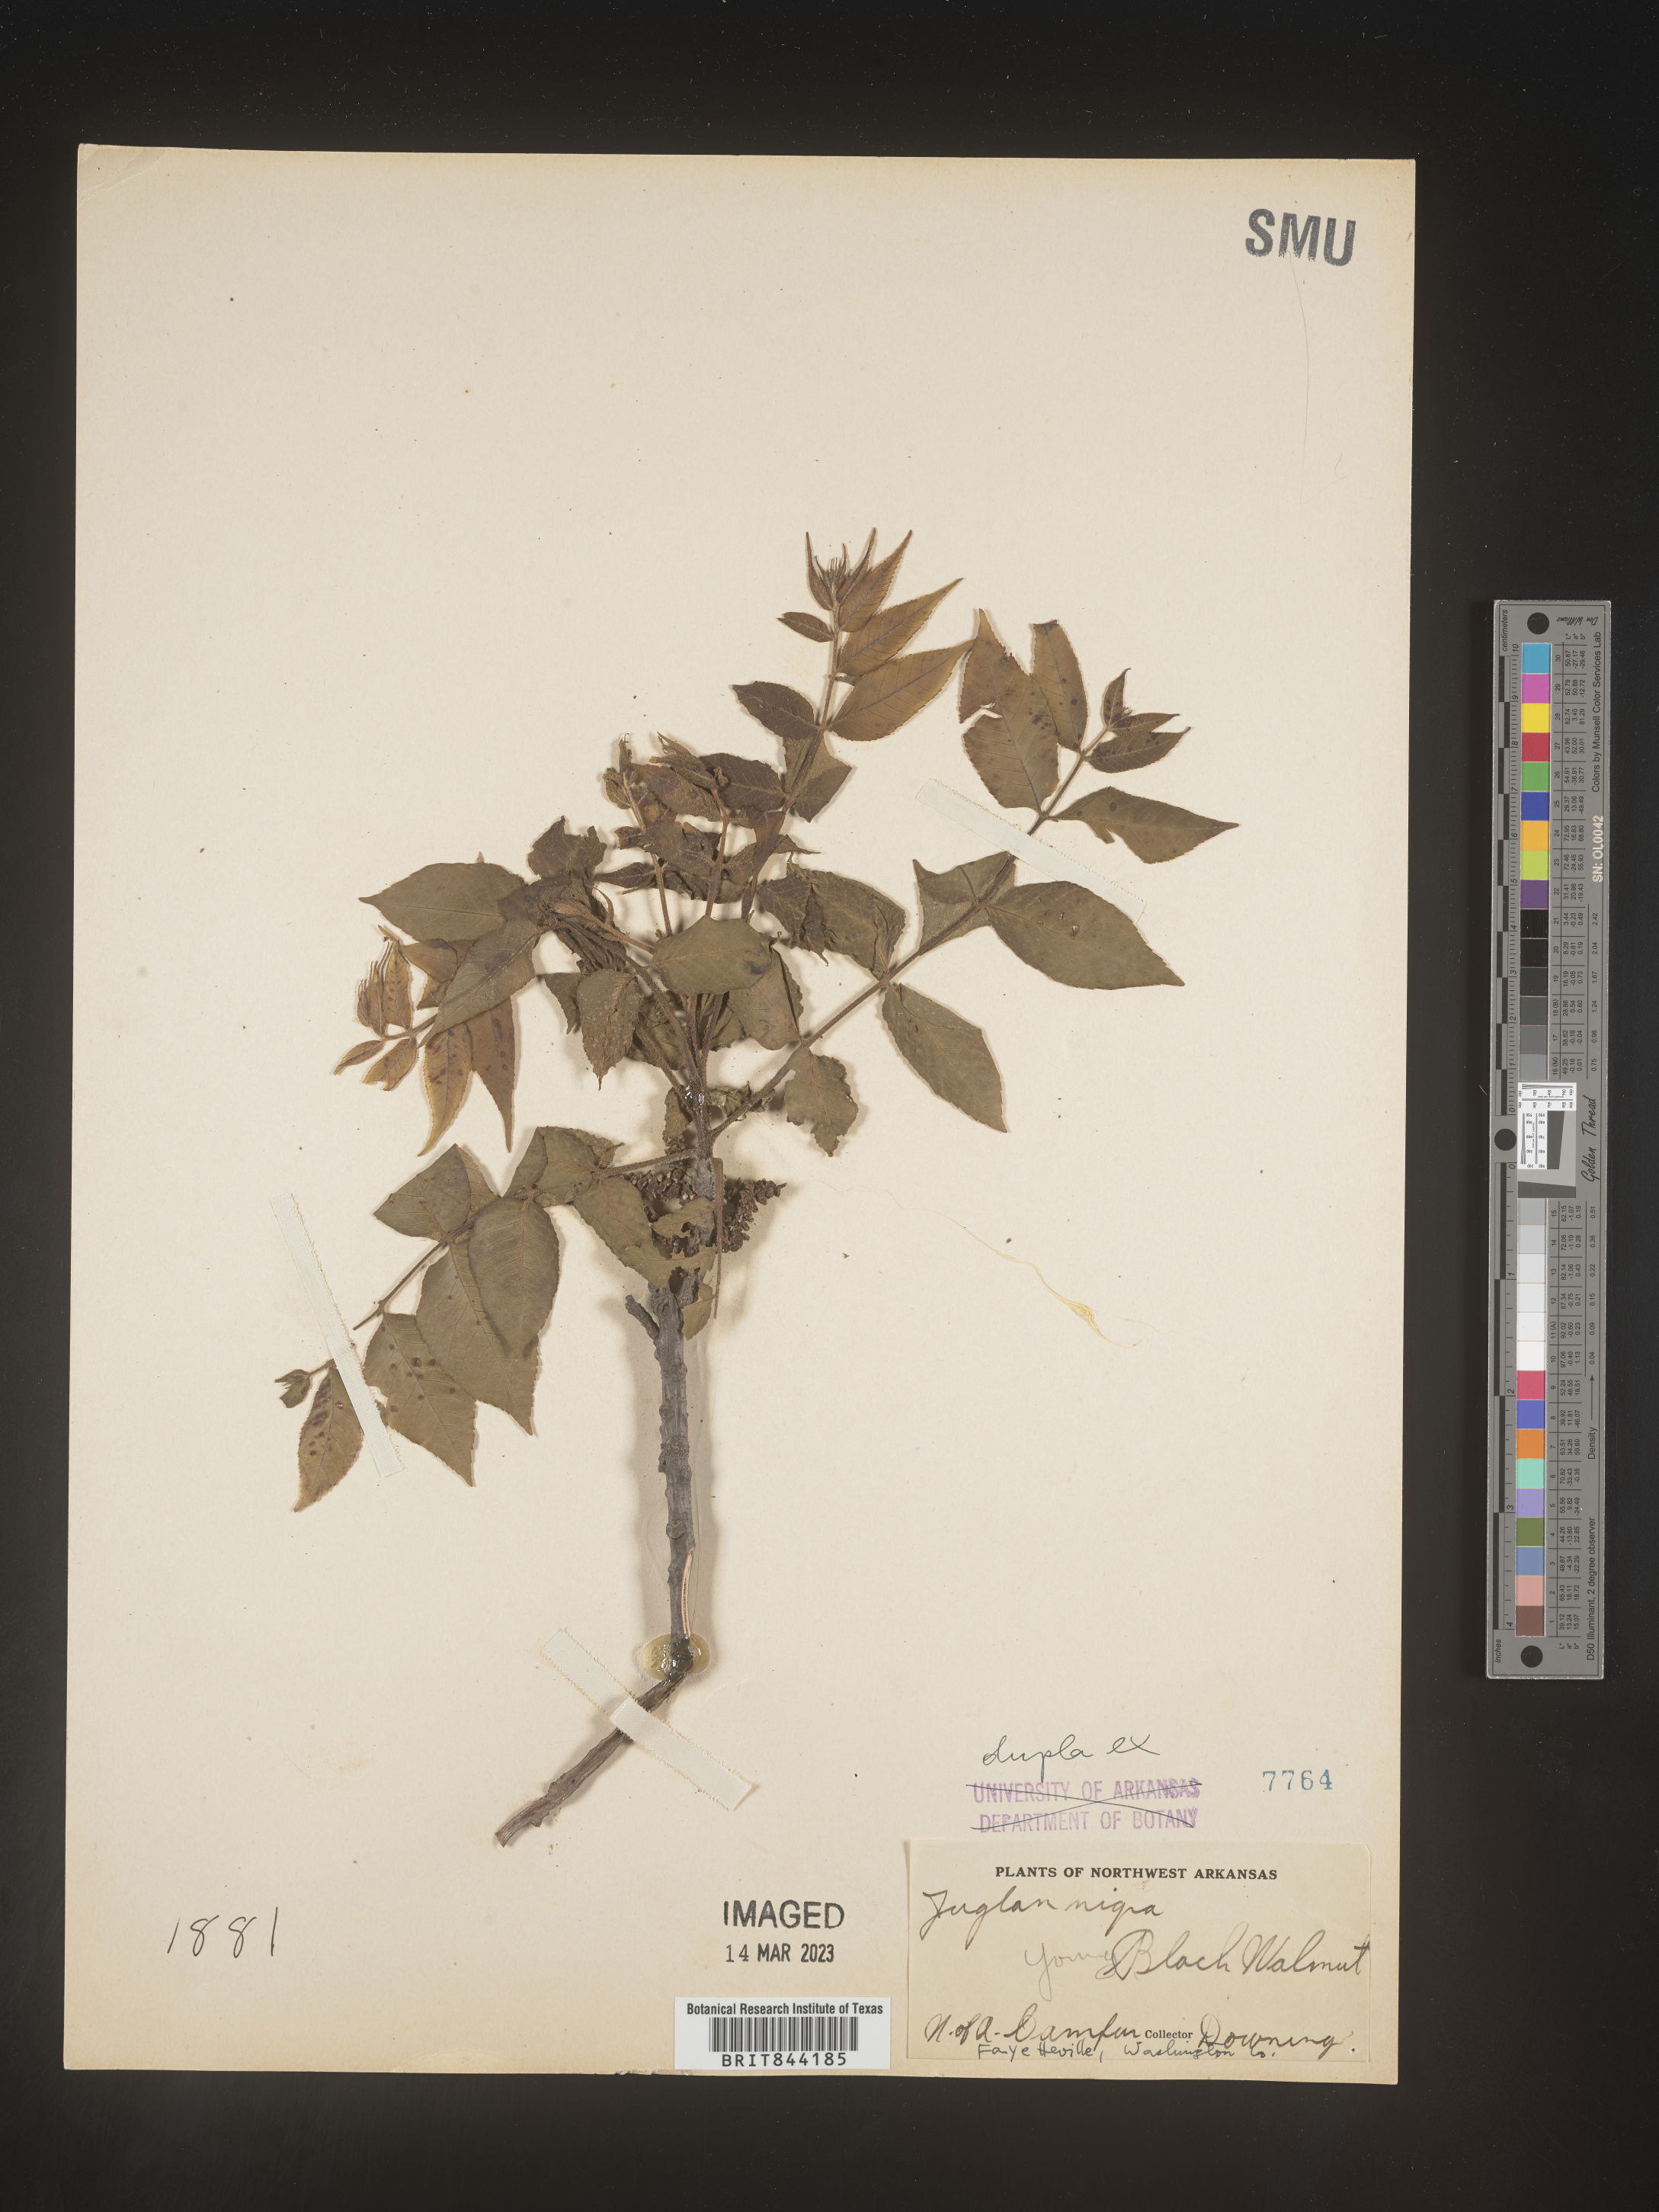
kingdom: Plantae
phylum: Tracheophyta
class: Magnoliopsida
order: Fagales
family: Juglandaceae
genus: Juglans
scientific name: Juglans nigra
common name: Black walnut
